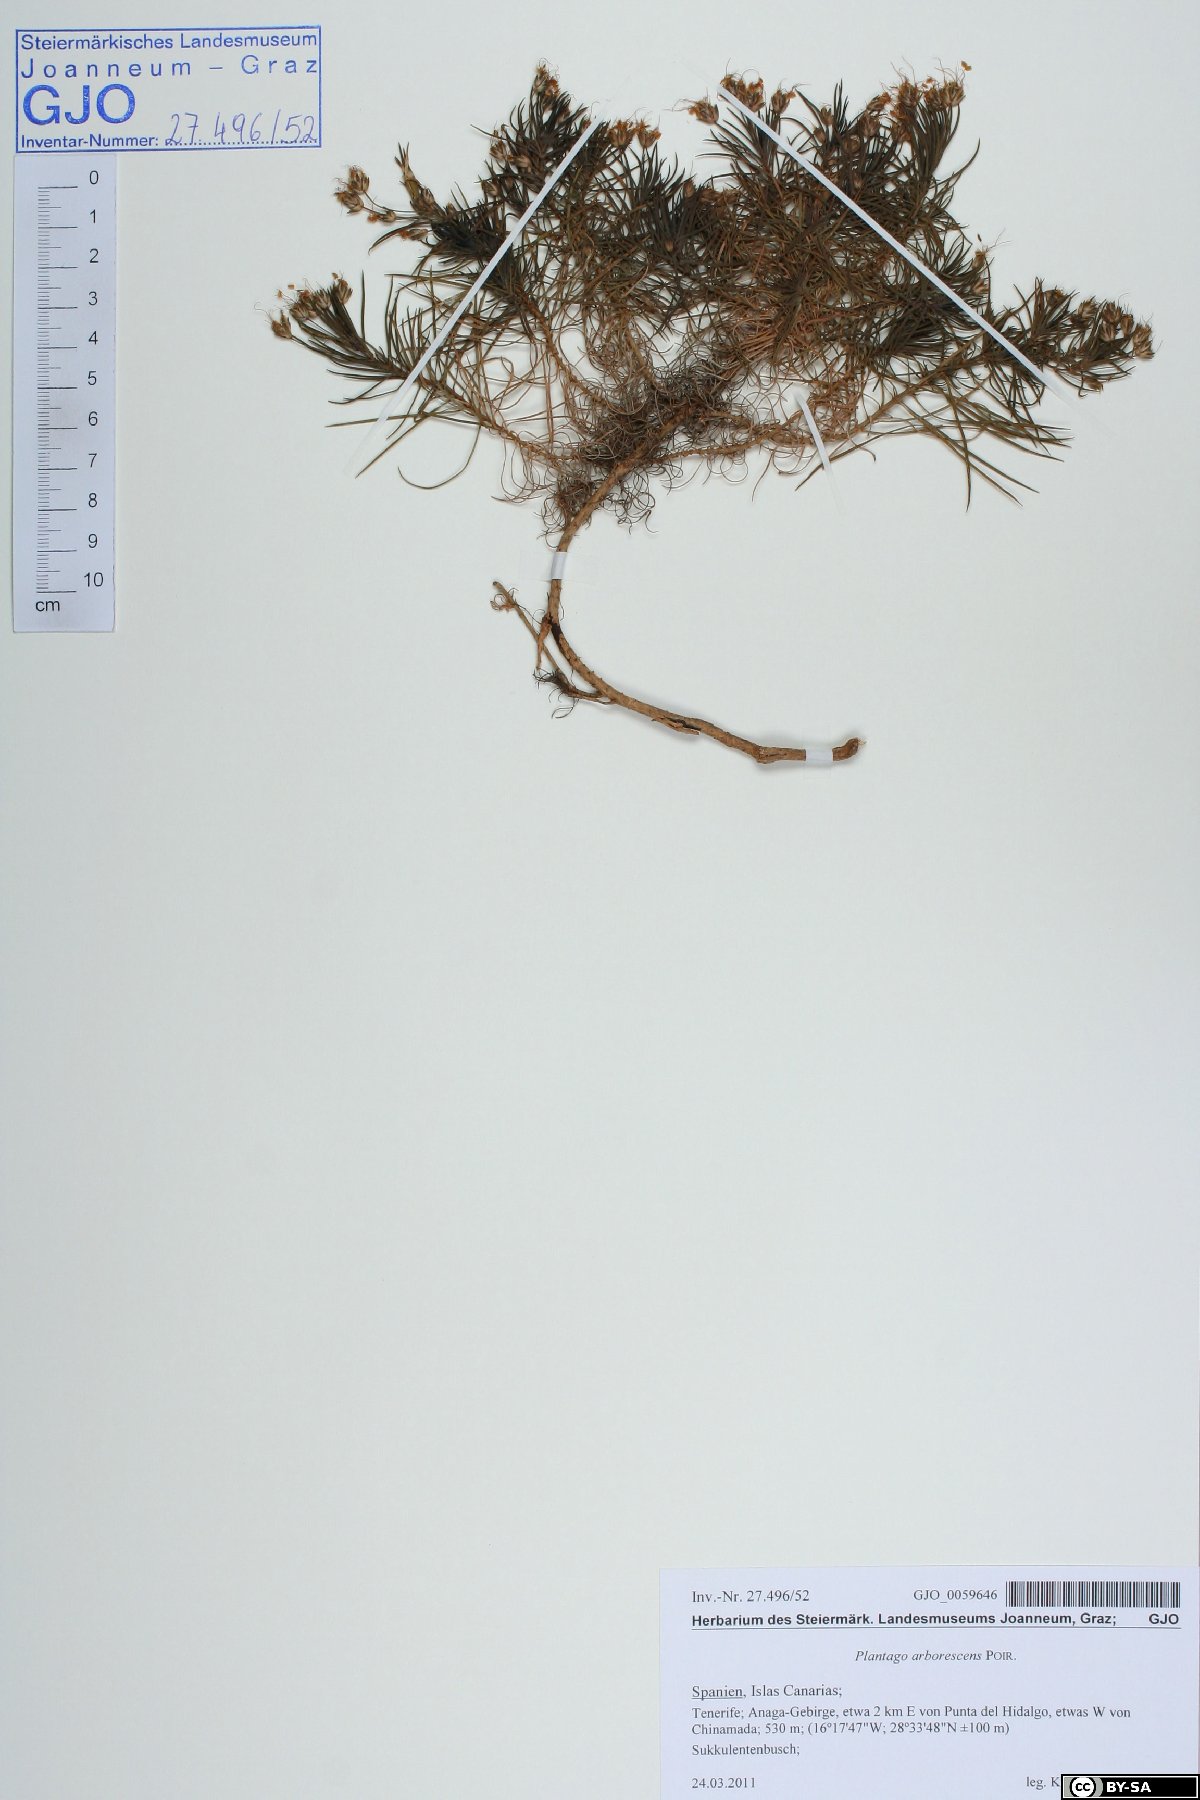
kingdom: Plantae
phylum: Tracheophyta
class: Magnoliopsida
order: Lamiales
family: Plantaginaceae
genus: Plantago
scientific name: Plantago arborescens
